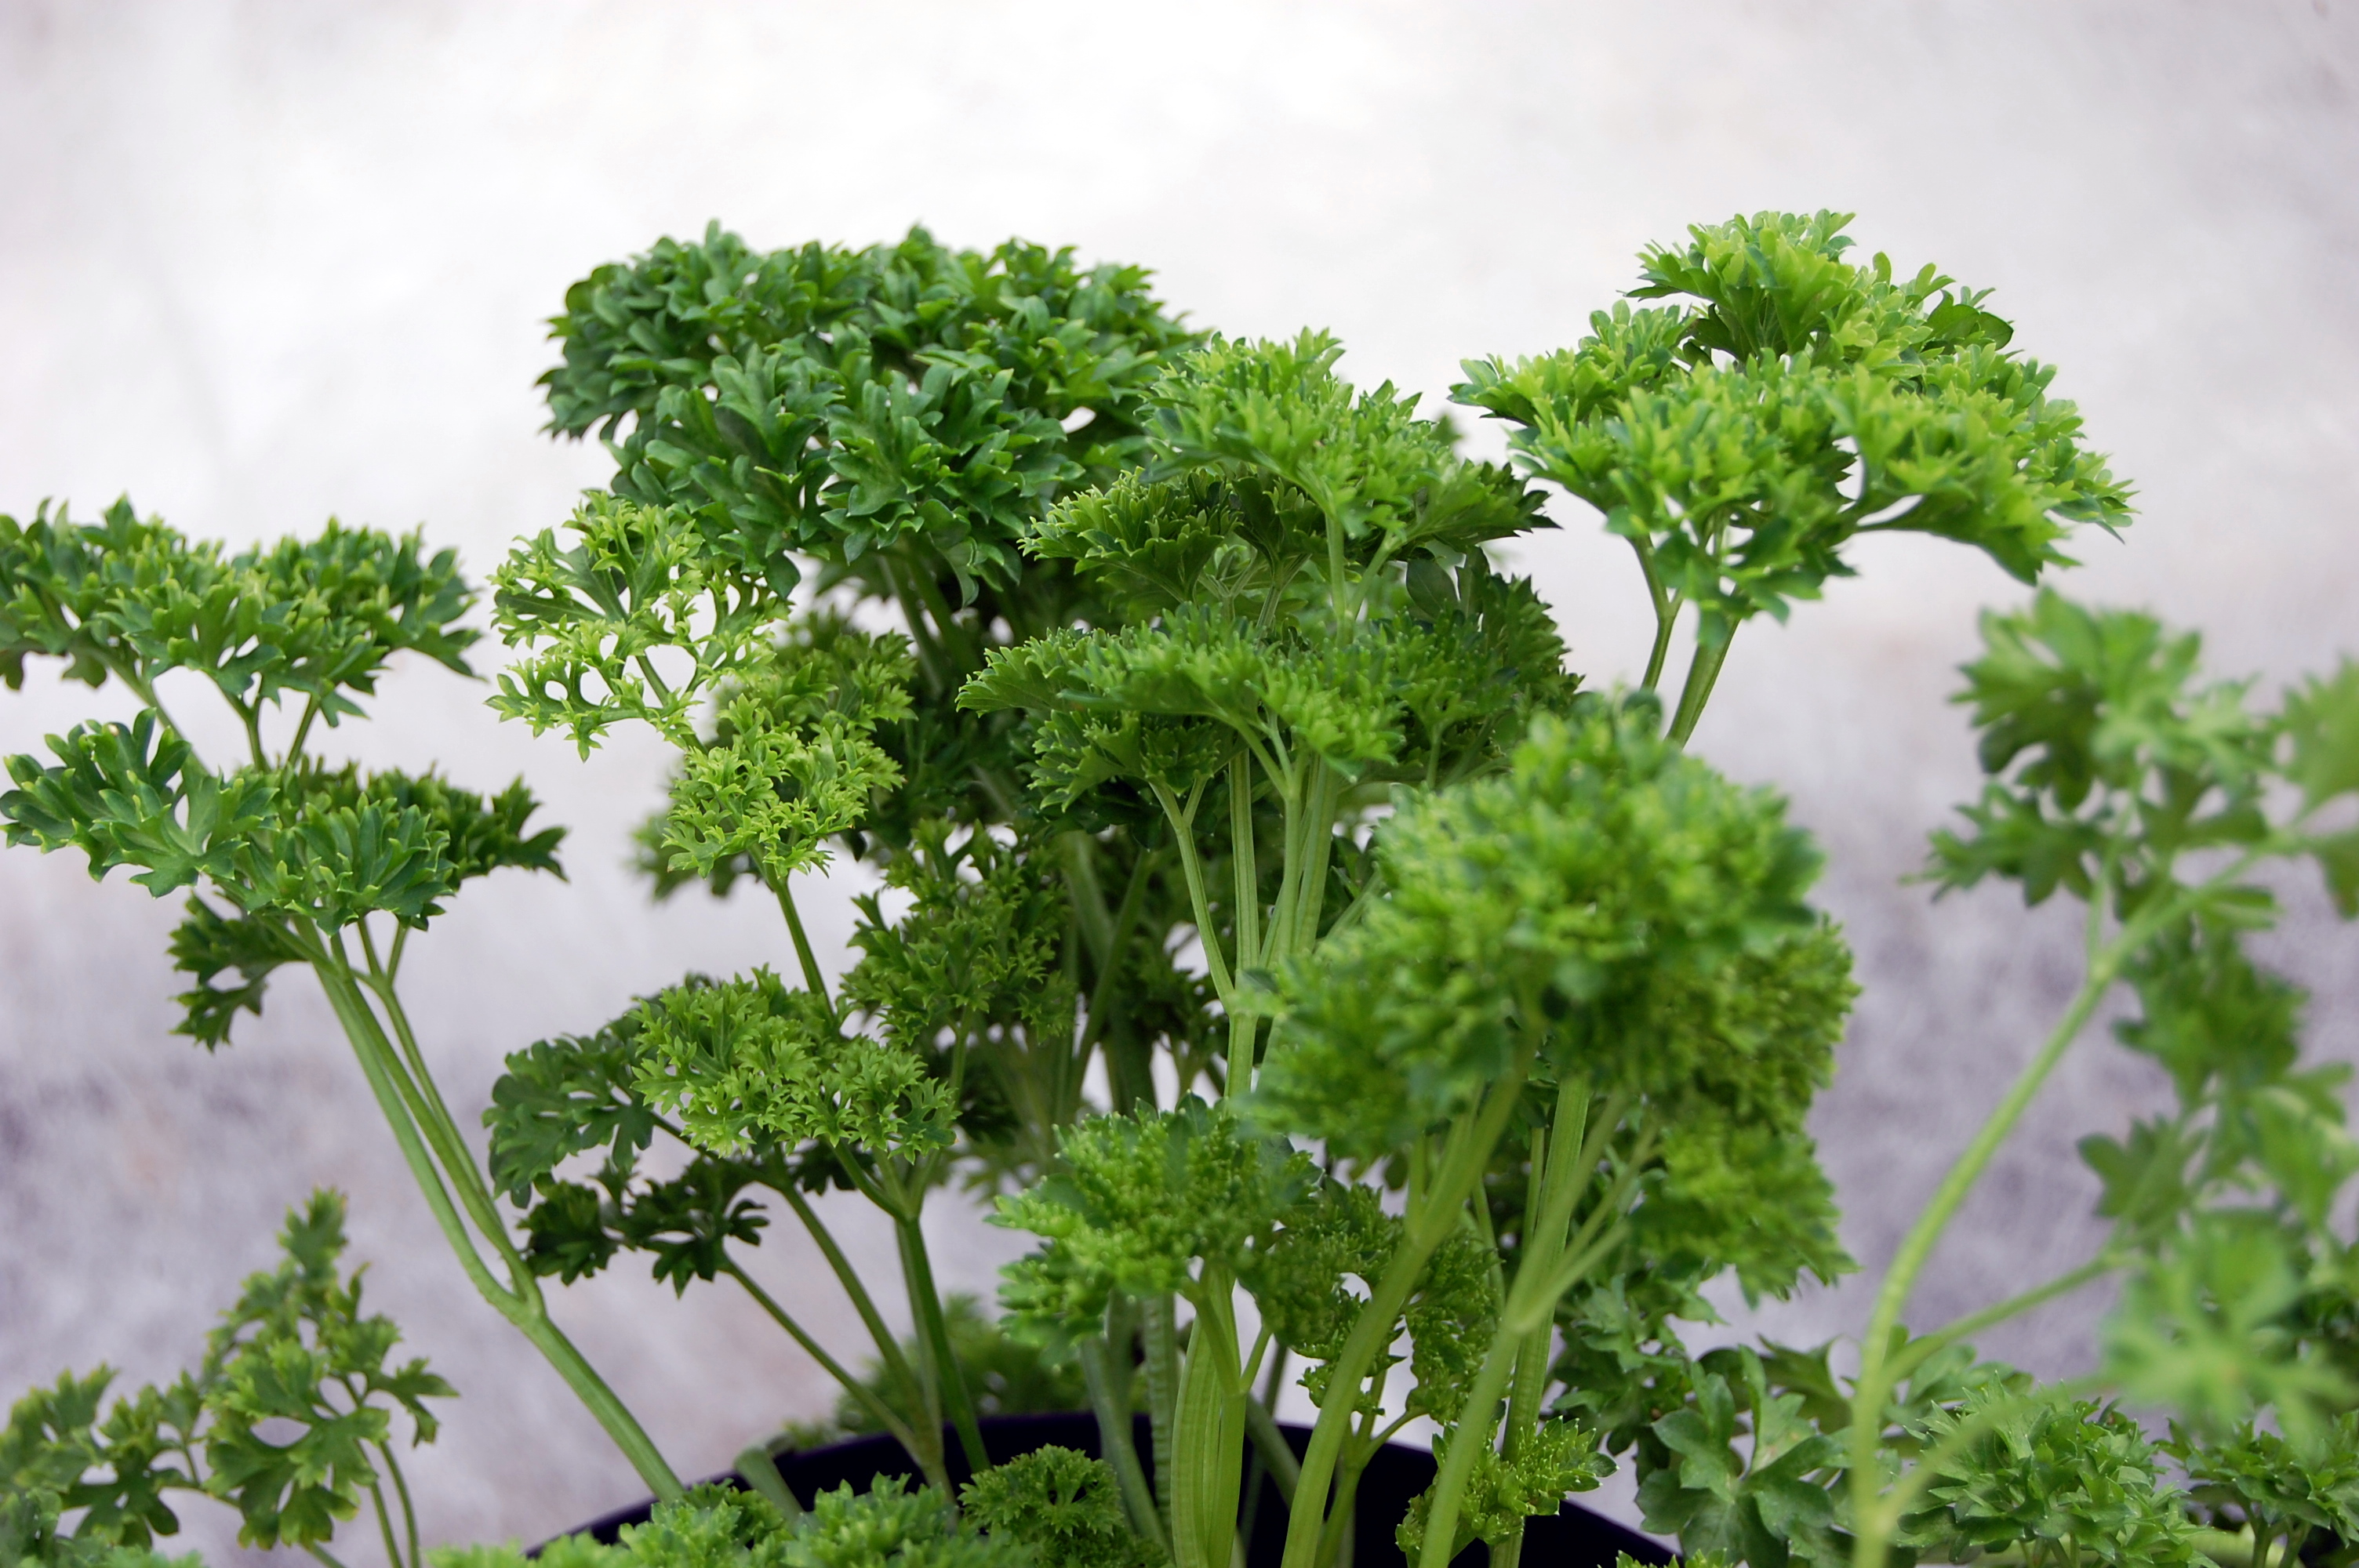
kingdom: Plantae
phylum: Tracheophyta
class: Magnoliopsida
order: Apiales
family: Apiaceae
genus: Petroselinum
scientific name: Petroselinum crispum
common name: Parsley
